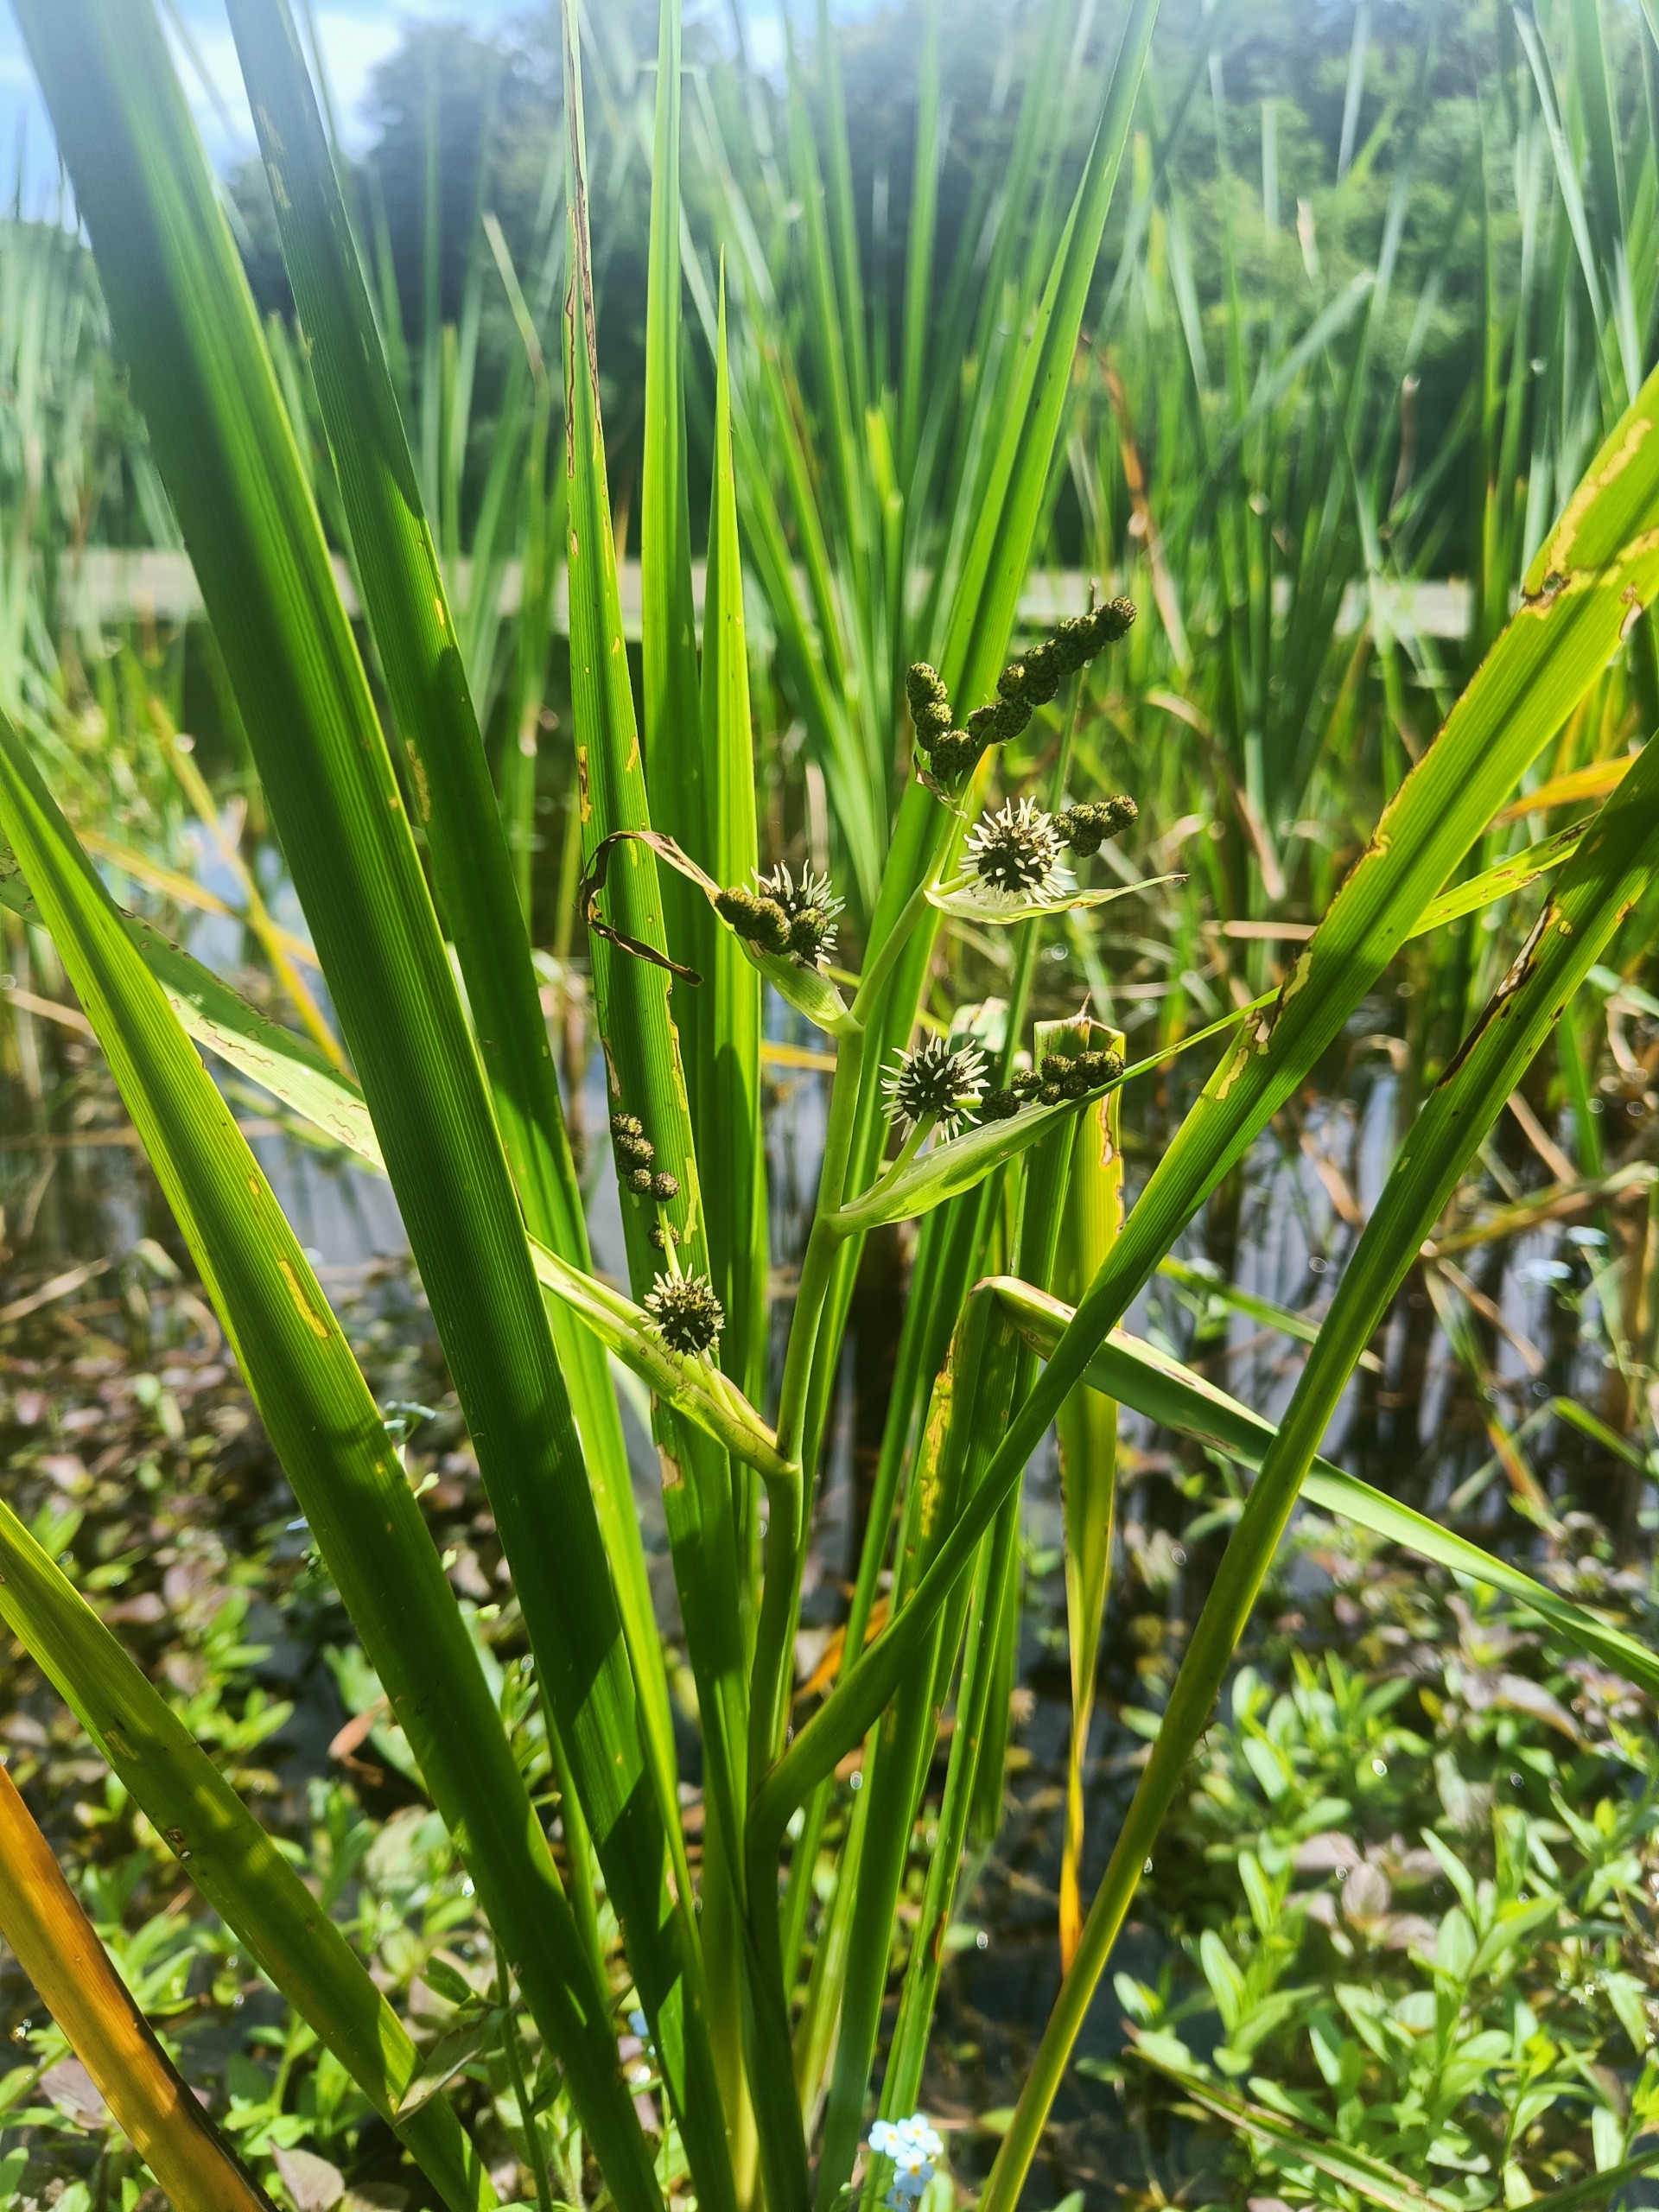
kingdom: Plantae
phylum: Tracheophyta
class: Liliopsida
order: Poales
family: Typhaceae
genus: Sparganium
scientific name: Sparganium erectum
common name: Grenet pindsvineknop
